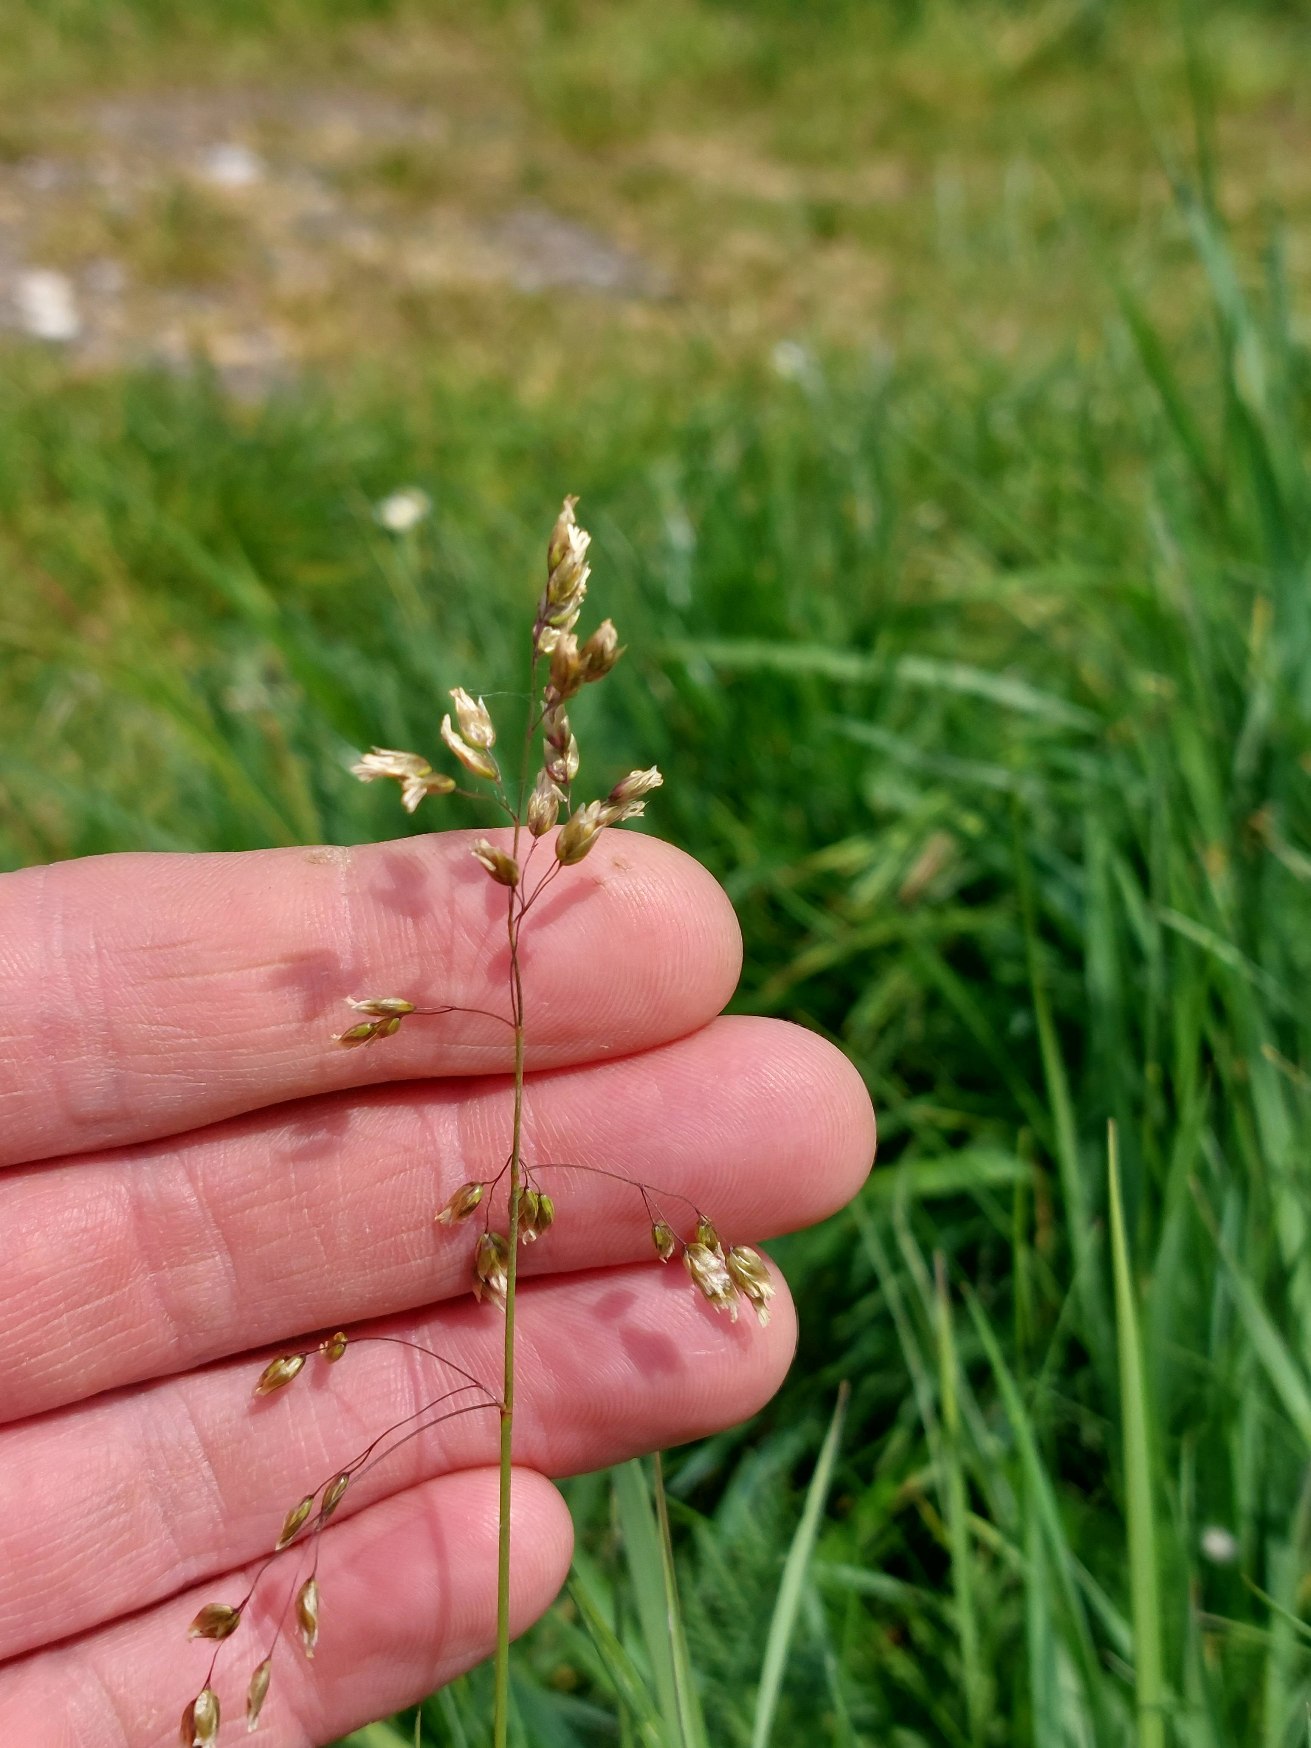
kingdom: Plantae
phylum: Tracheophyta
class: Liliopsida
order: Poales
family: Poaceae
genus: Anthoxanthum
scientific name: Anthoxanthum nitens
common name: Festgræs
